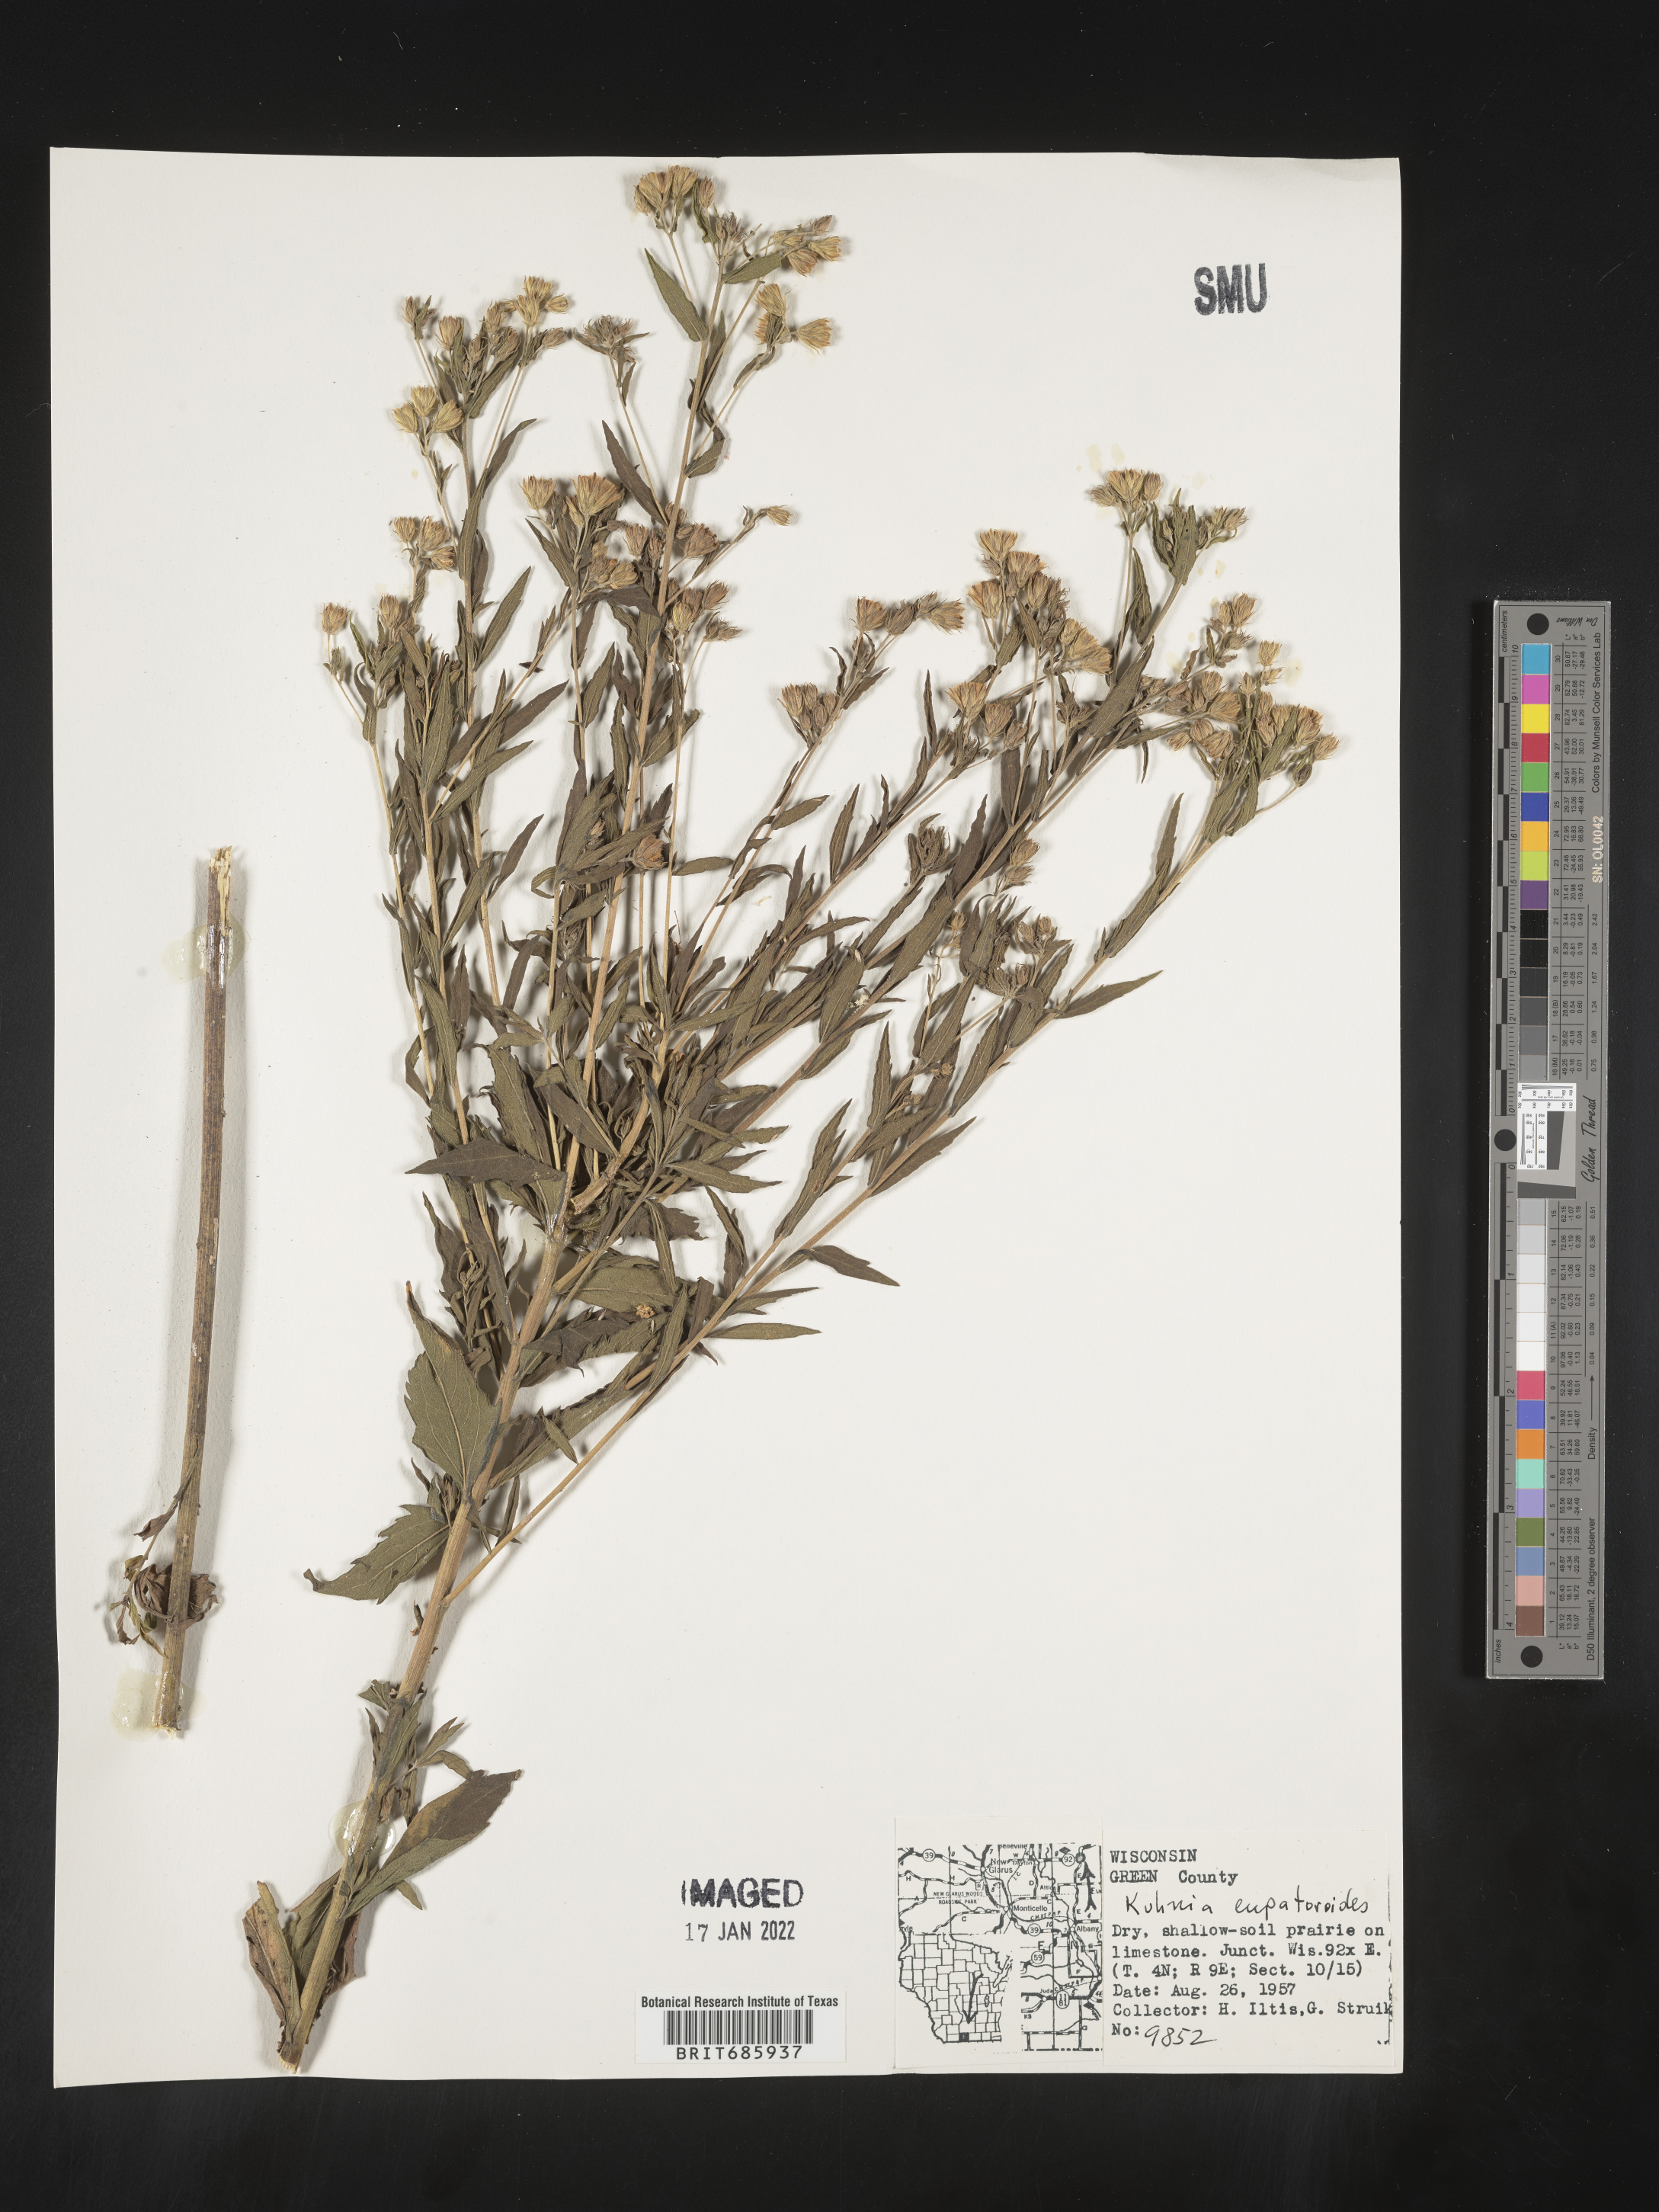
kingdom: Plantae
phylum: Tracheophyta
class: Magnoliopsida
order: Asterales
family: Asteraceae
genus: Brickellia
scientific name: Brickellia eupatorioides
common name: False boneset
